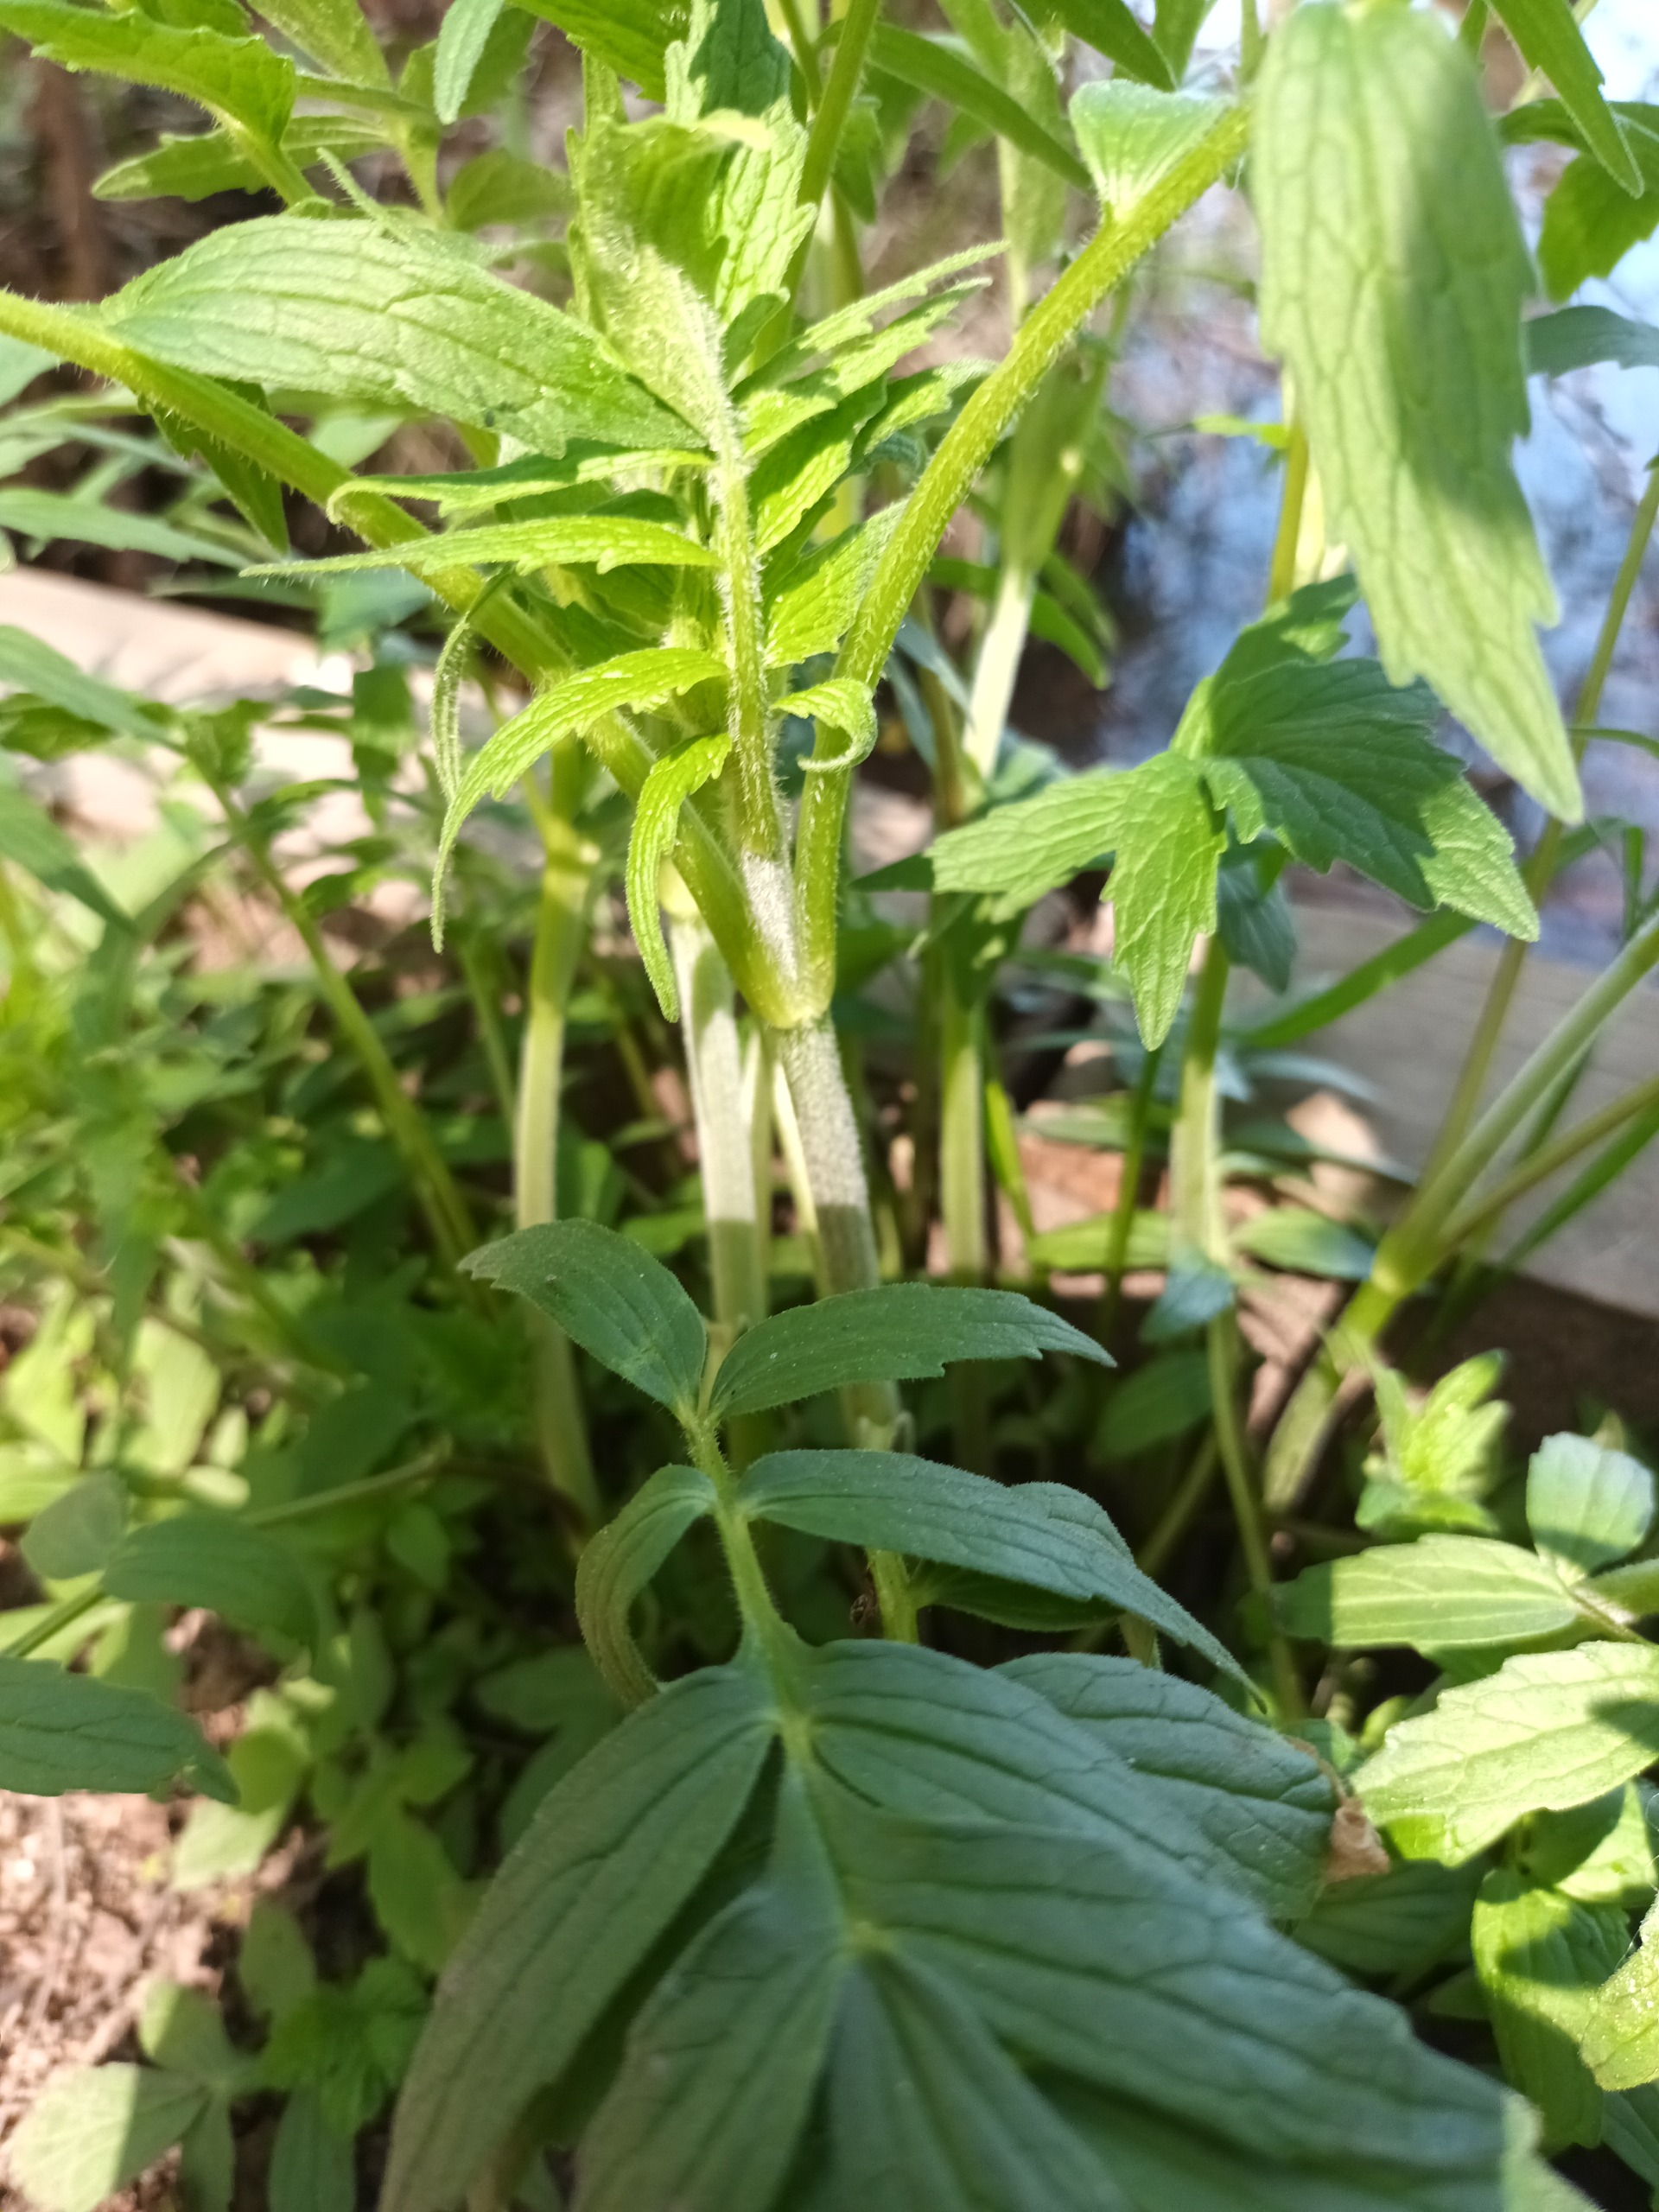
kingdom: Plantae
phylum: Tracheophyta
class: Magnoliopsida
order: Dipsacales
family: Caprifoliaceae
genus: Valeriana
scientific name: Valeriana excelsa
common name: Krybende baldrian
